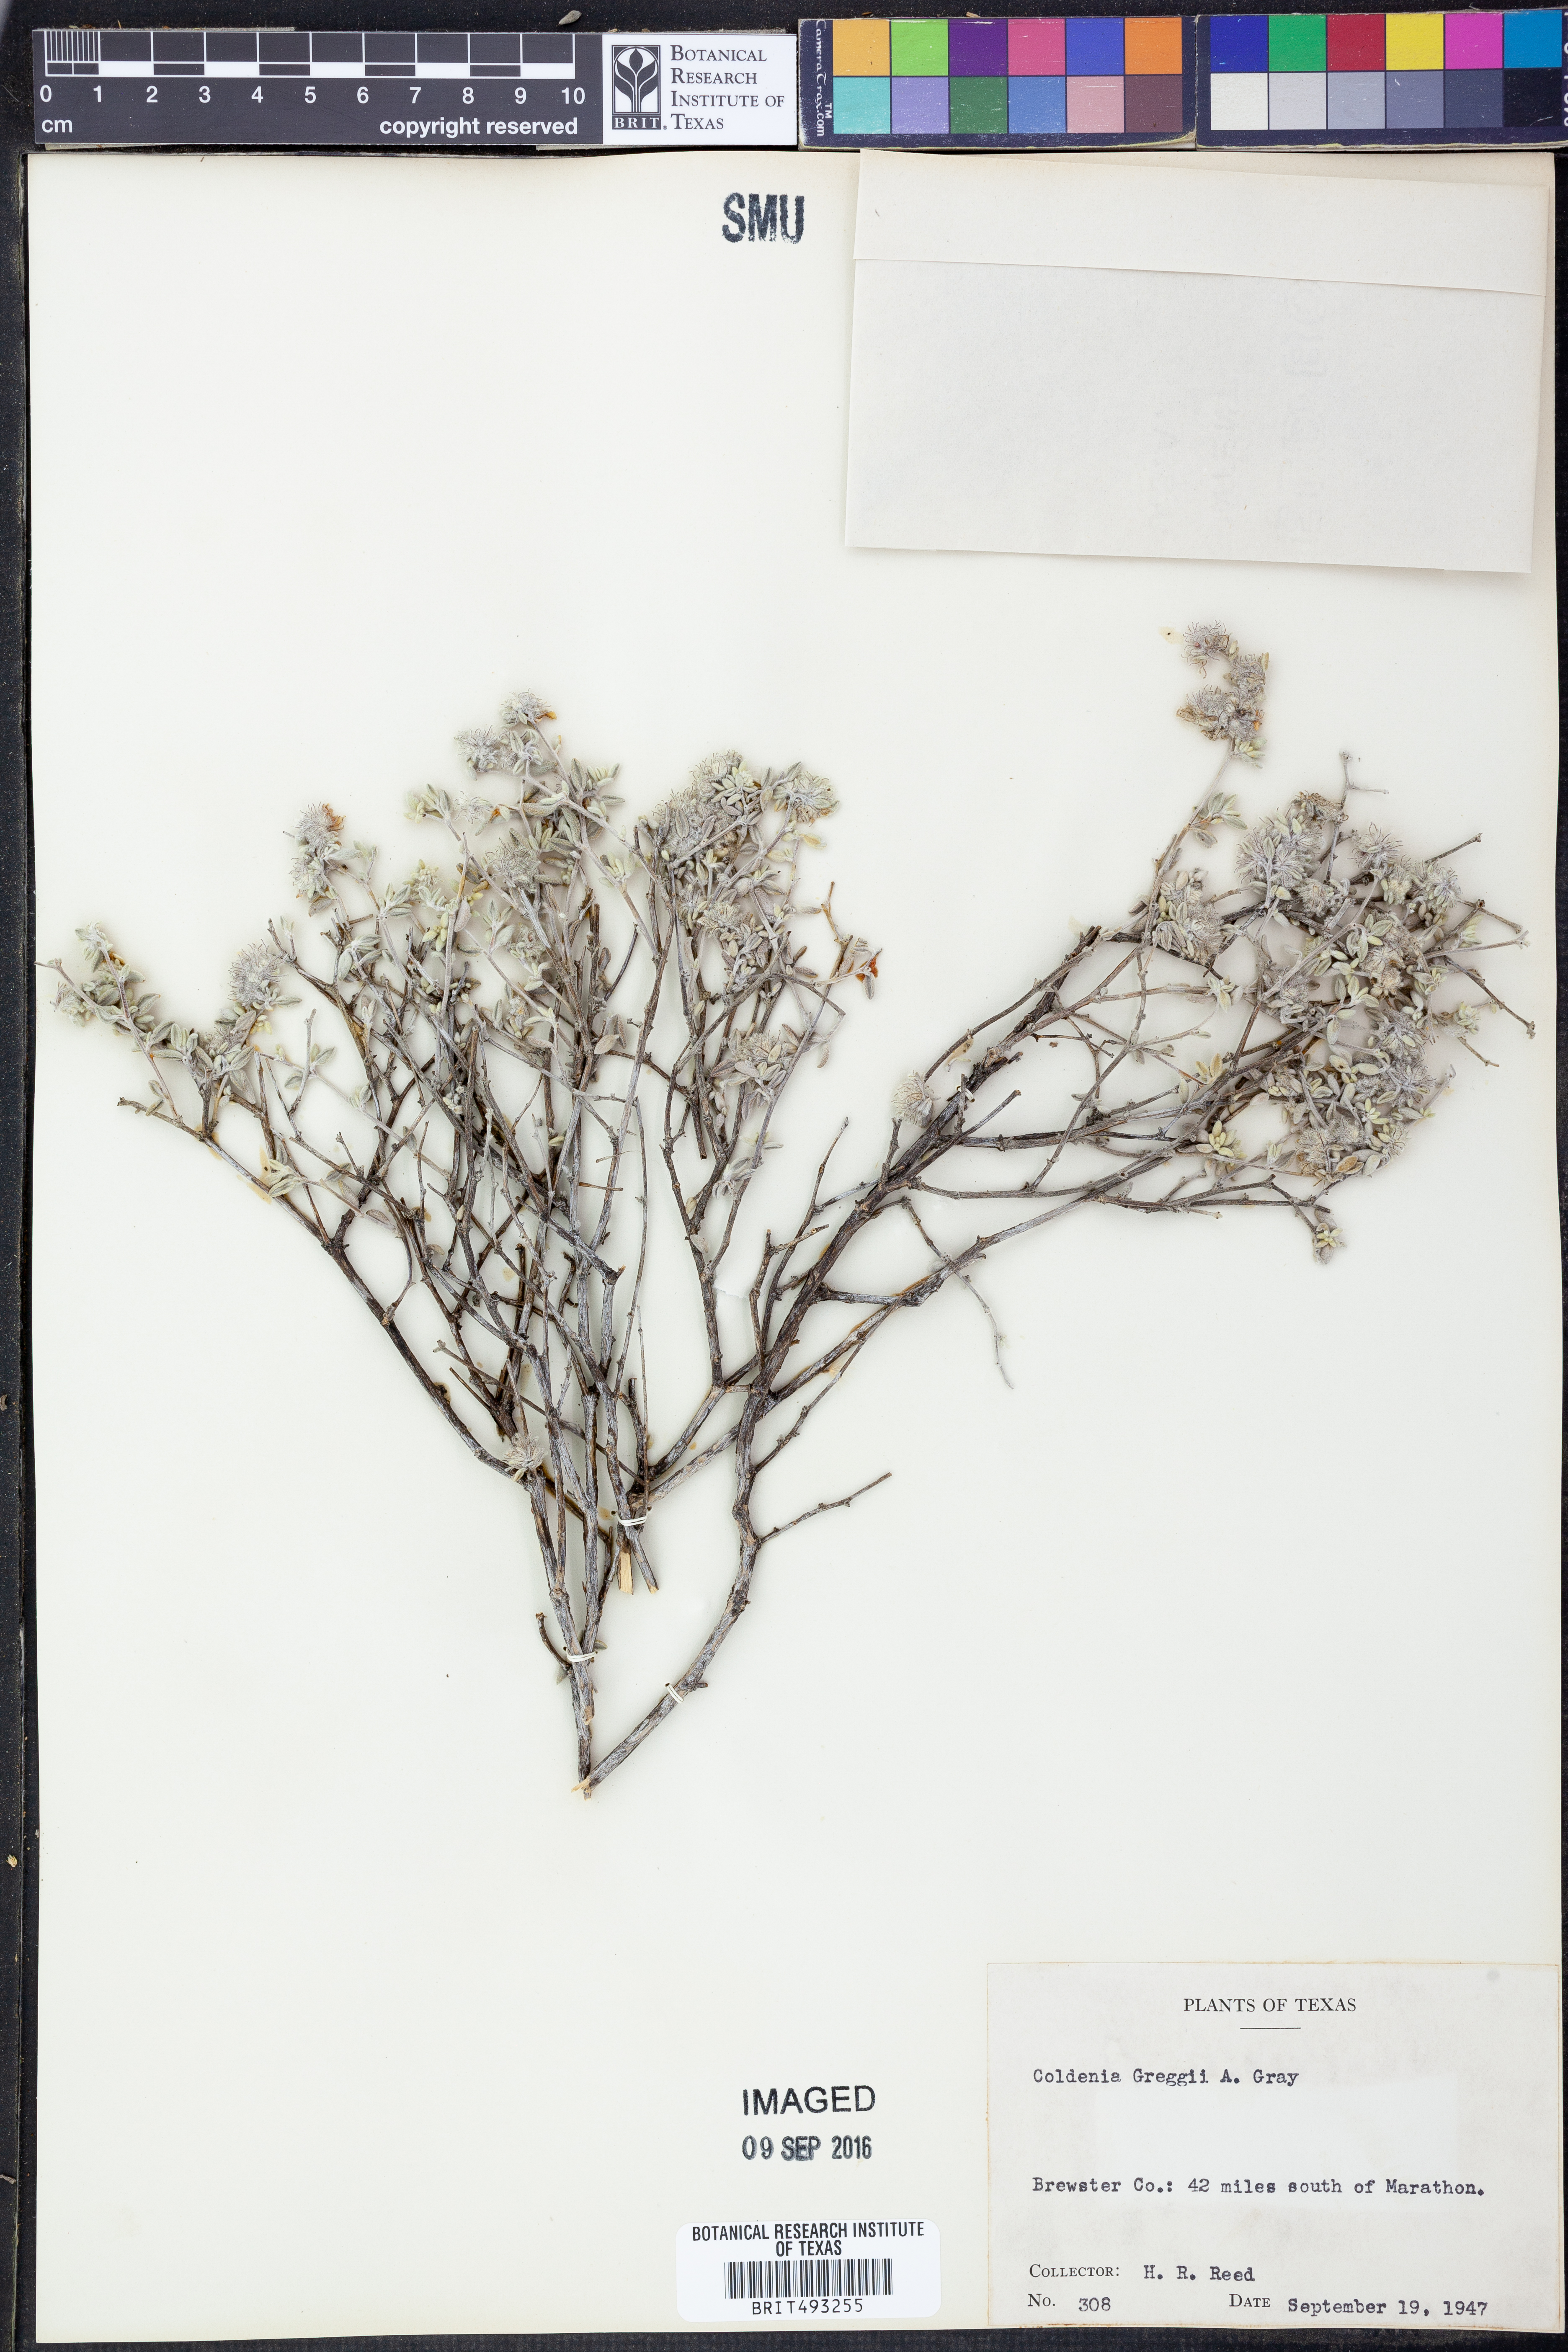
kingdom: Plantae
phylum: Tracheophyta
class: Magnoliopsida
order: Boraginales
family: Ehretiaceae
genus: Tiquilia
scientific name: Tiquilia greggii
